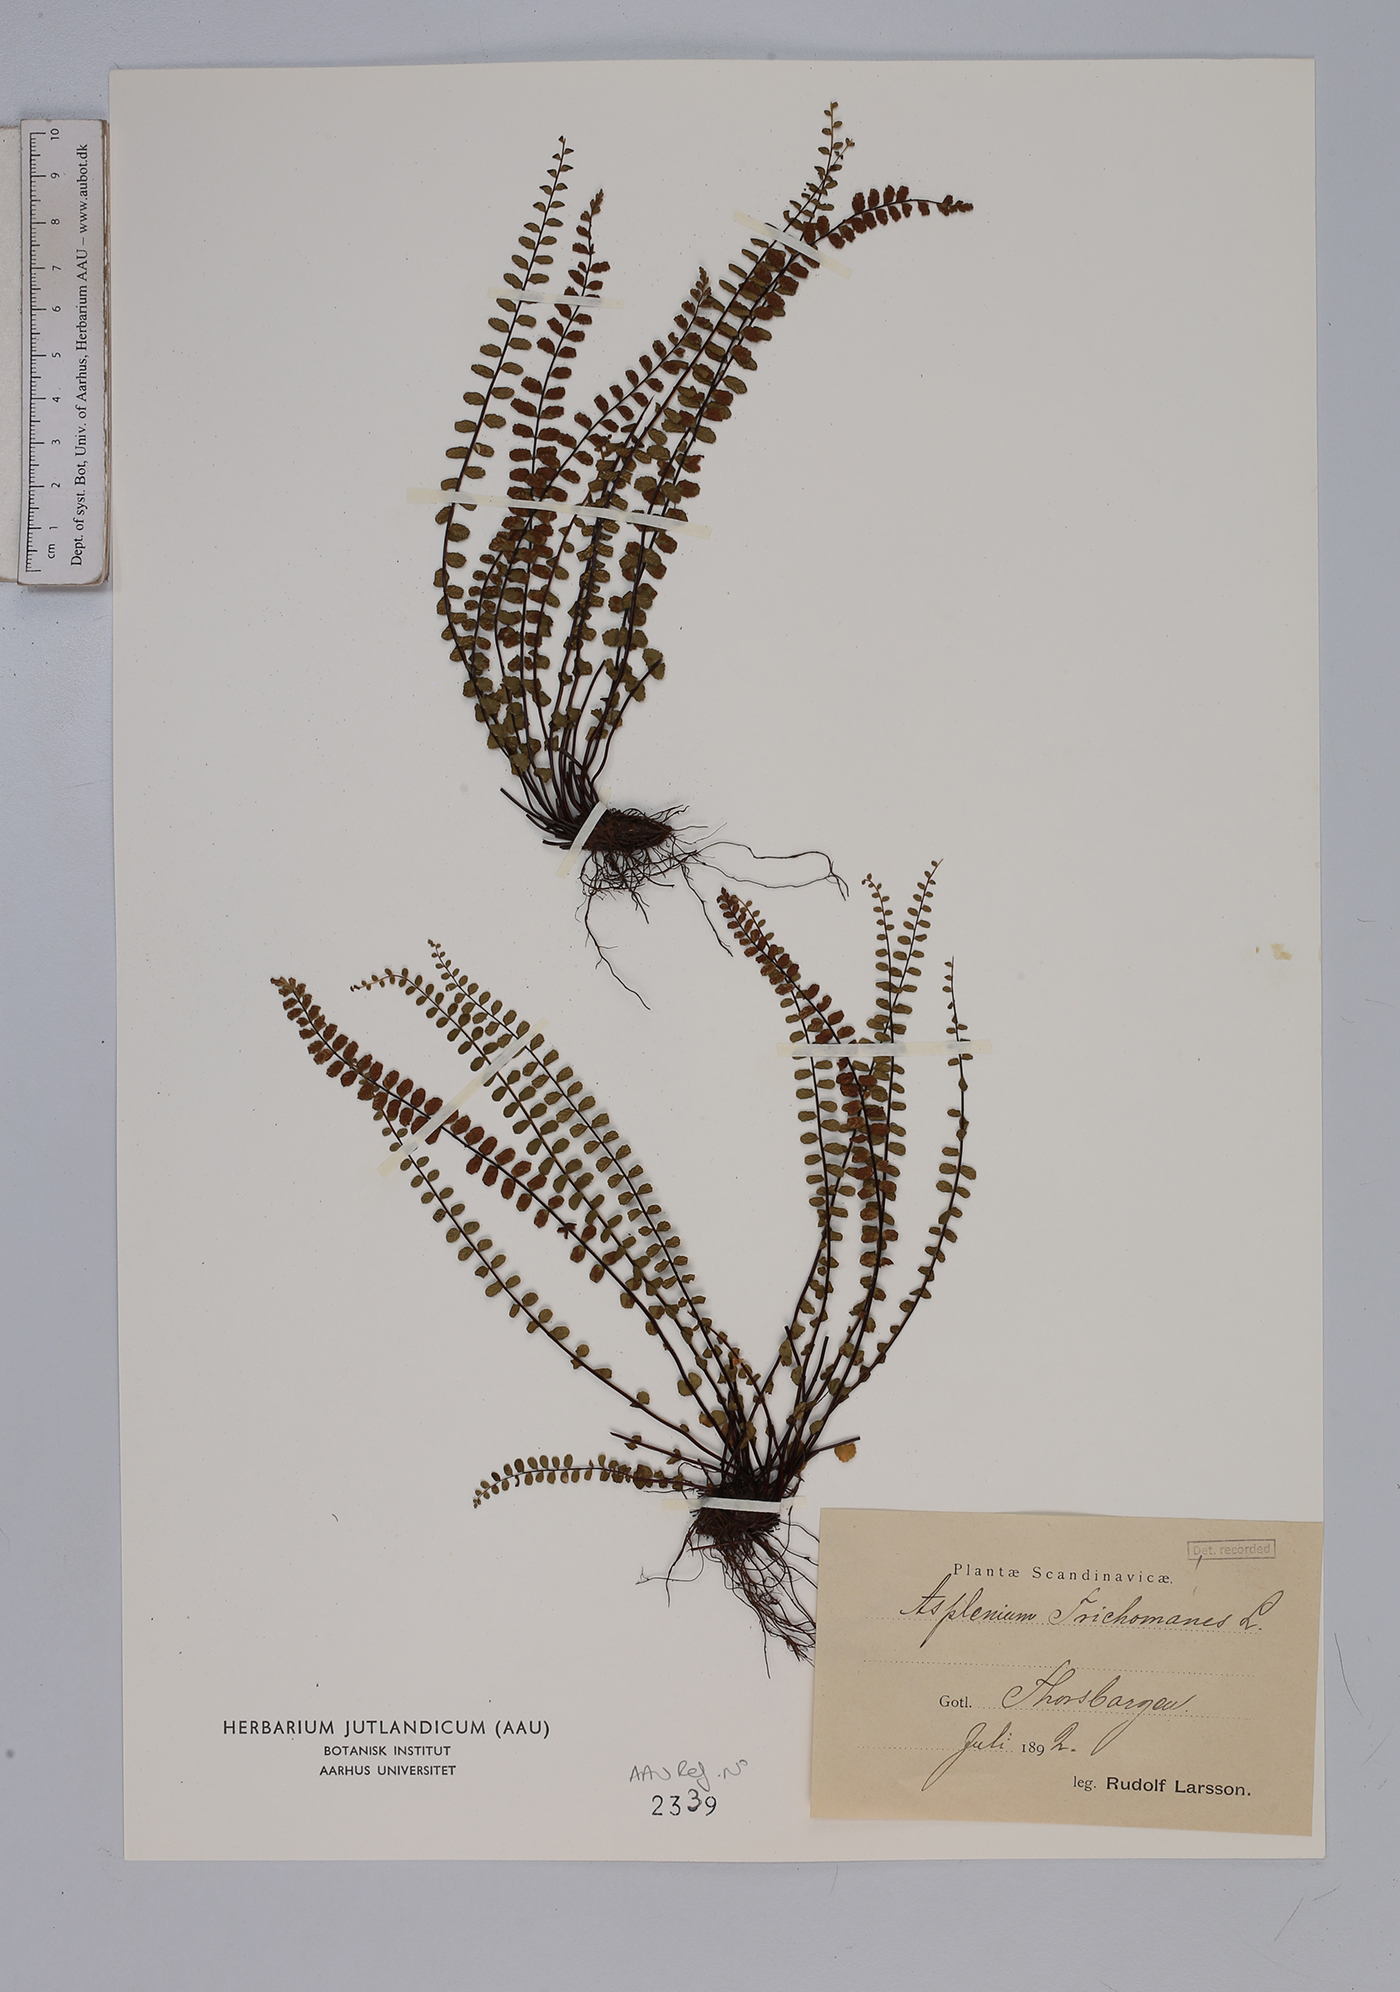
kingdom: Plantae
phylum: Tracheophyta
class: Polypodiopsida
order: Polypodiales
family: Aspleniaceae
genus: Asplenium
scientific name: Asplenium trichomanes
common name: Maidenhair spleenwort
